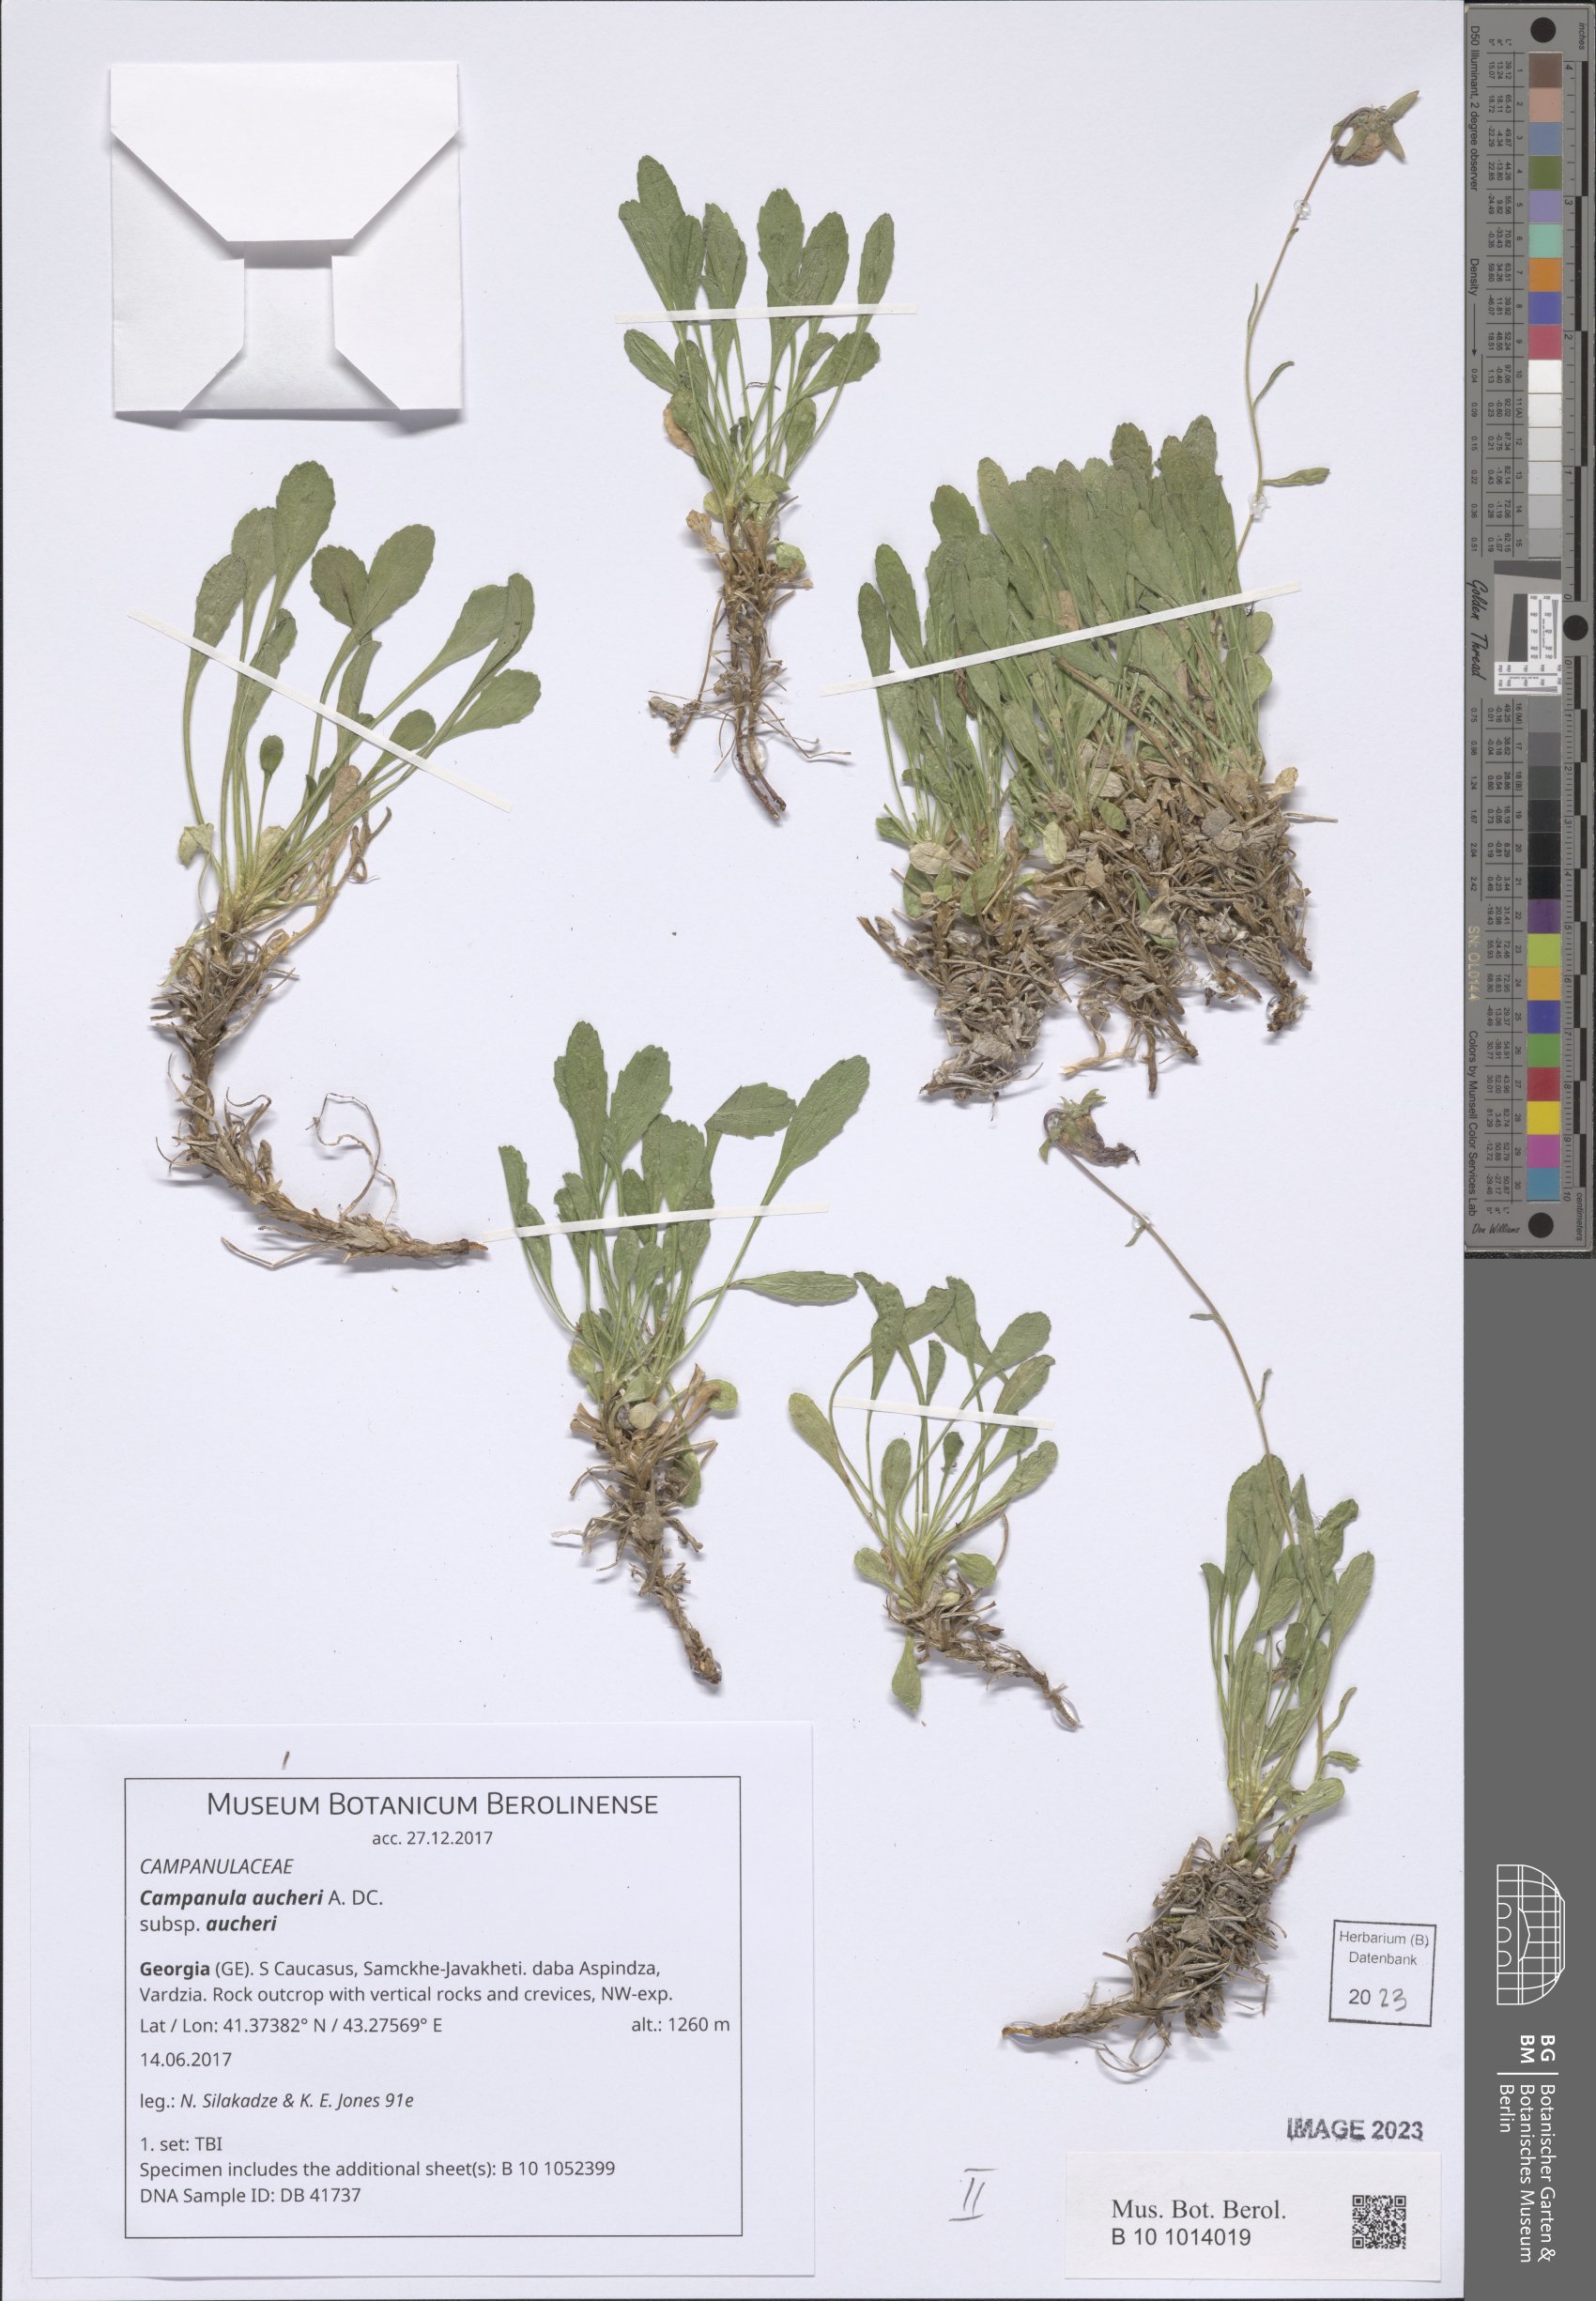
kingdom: Plantae
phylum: Tracheophyta
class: Magnoliopsida
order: Asterales
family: Campanulaceae
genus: Campanula
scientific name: Campanula saxifraga
